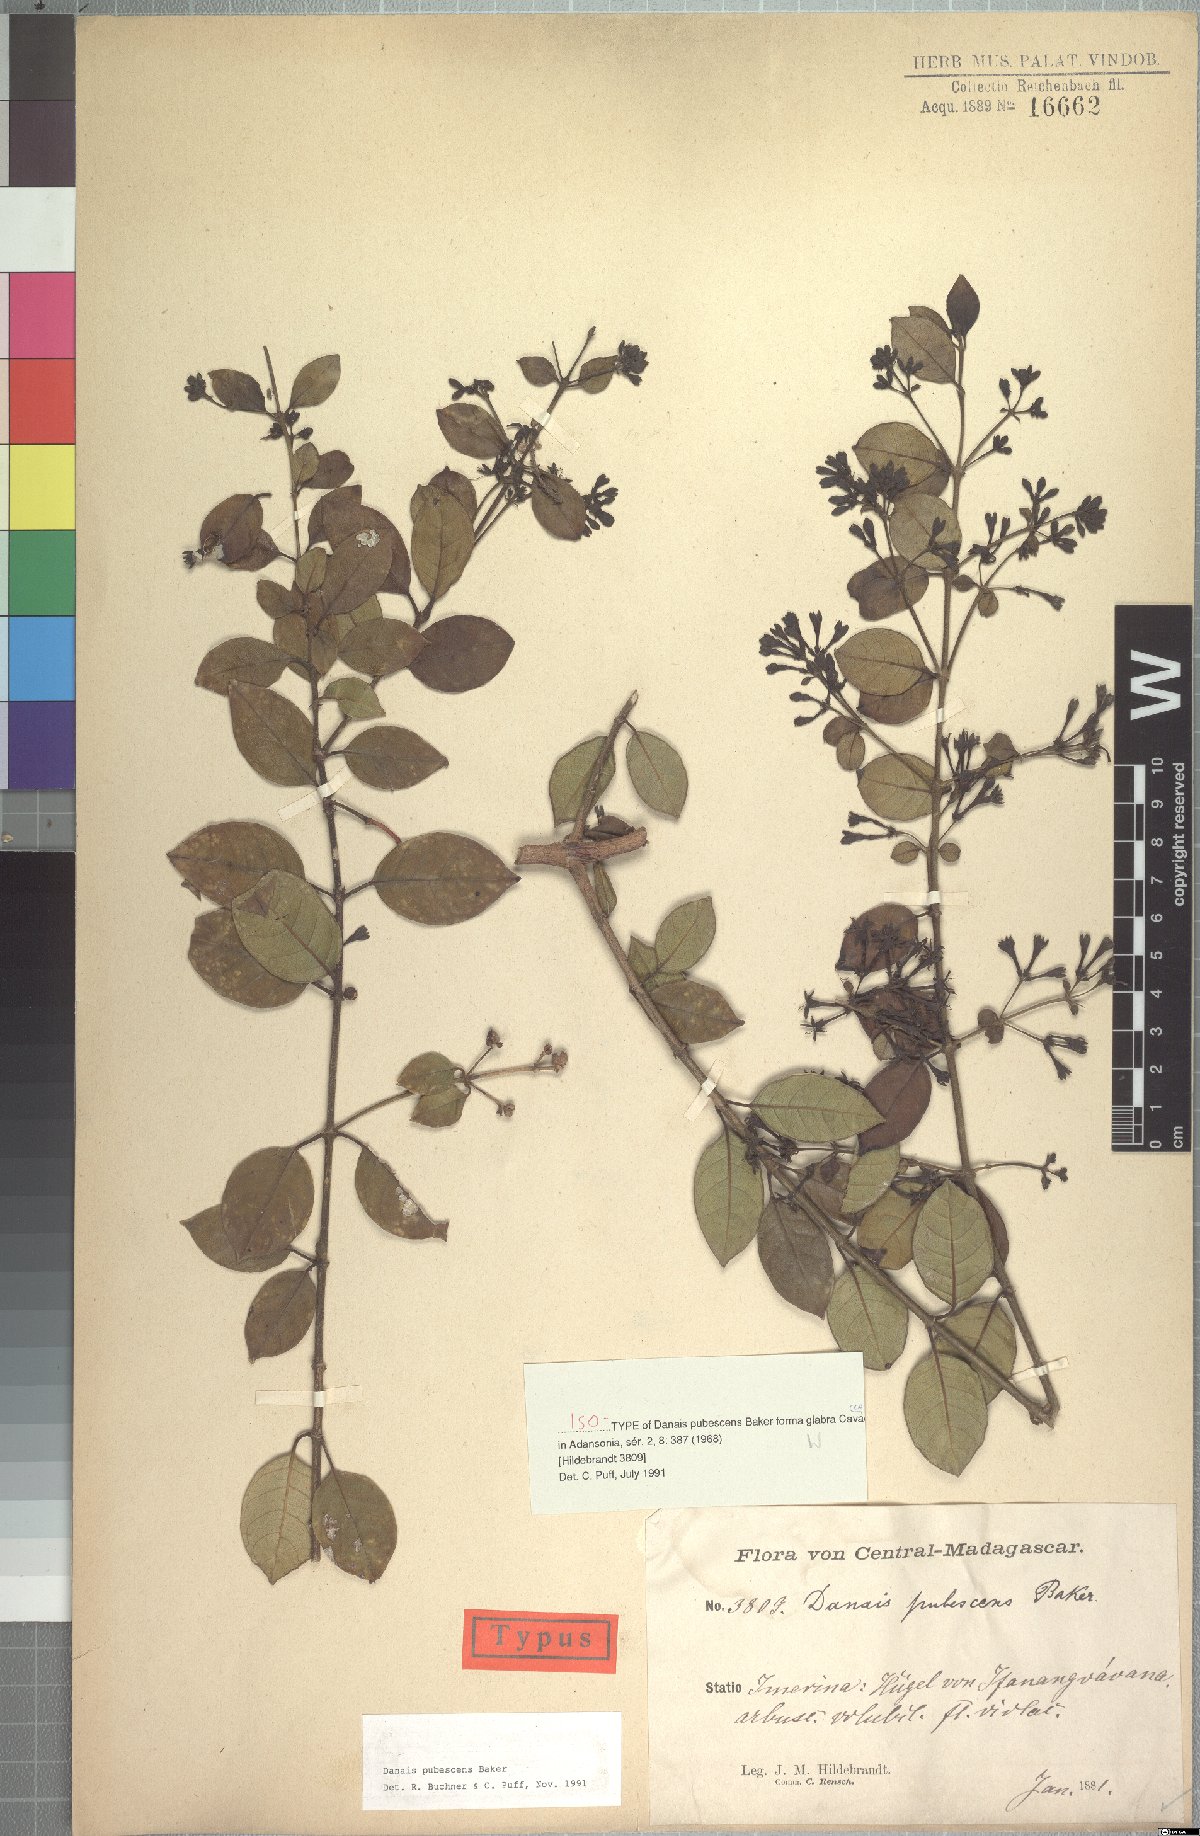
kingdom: Plantae
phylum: Tracheophyta
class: Magnoliopsida
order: Gentianales
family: Rubiaceae
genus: Danais
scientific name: Danais pubescens
